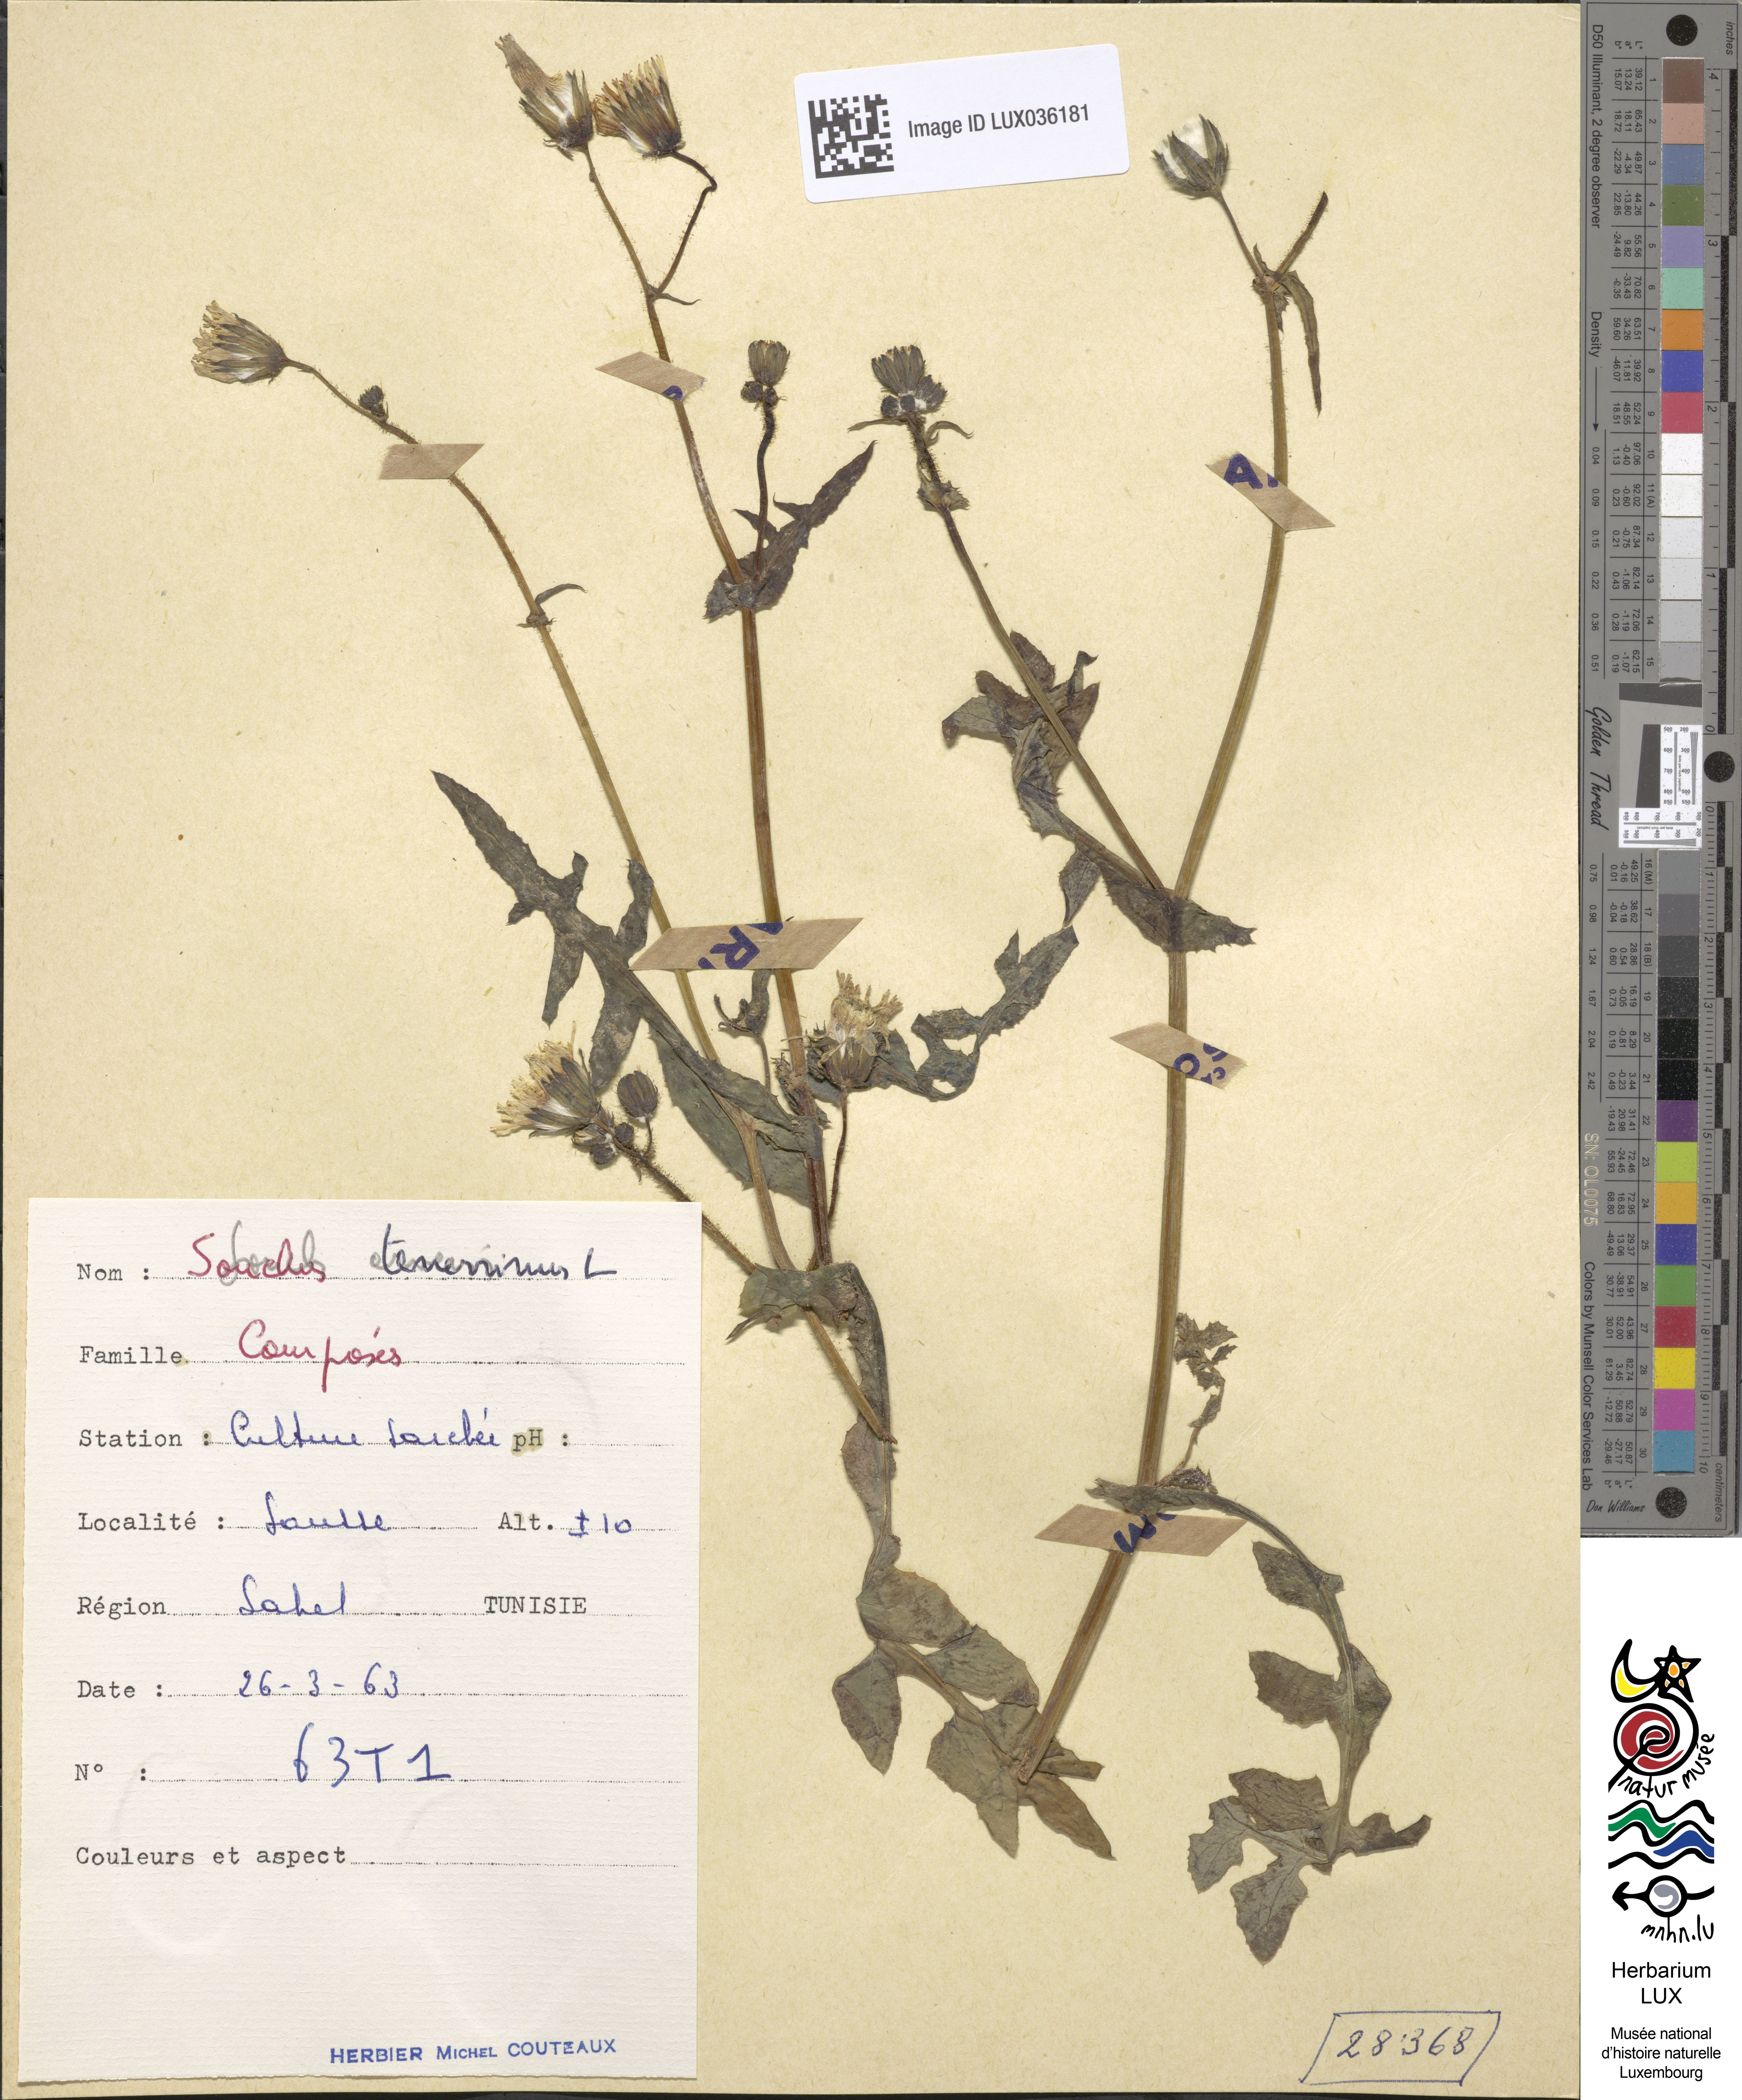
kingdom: Plantae
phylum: Tracheophyta
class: Magnoliopsida
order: Asterales
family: Asteraceae
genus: Sonchus
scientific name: Sonchus tenerrimus
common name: Clammy sowthistle
